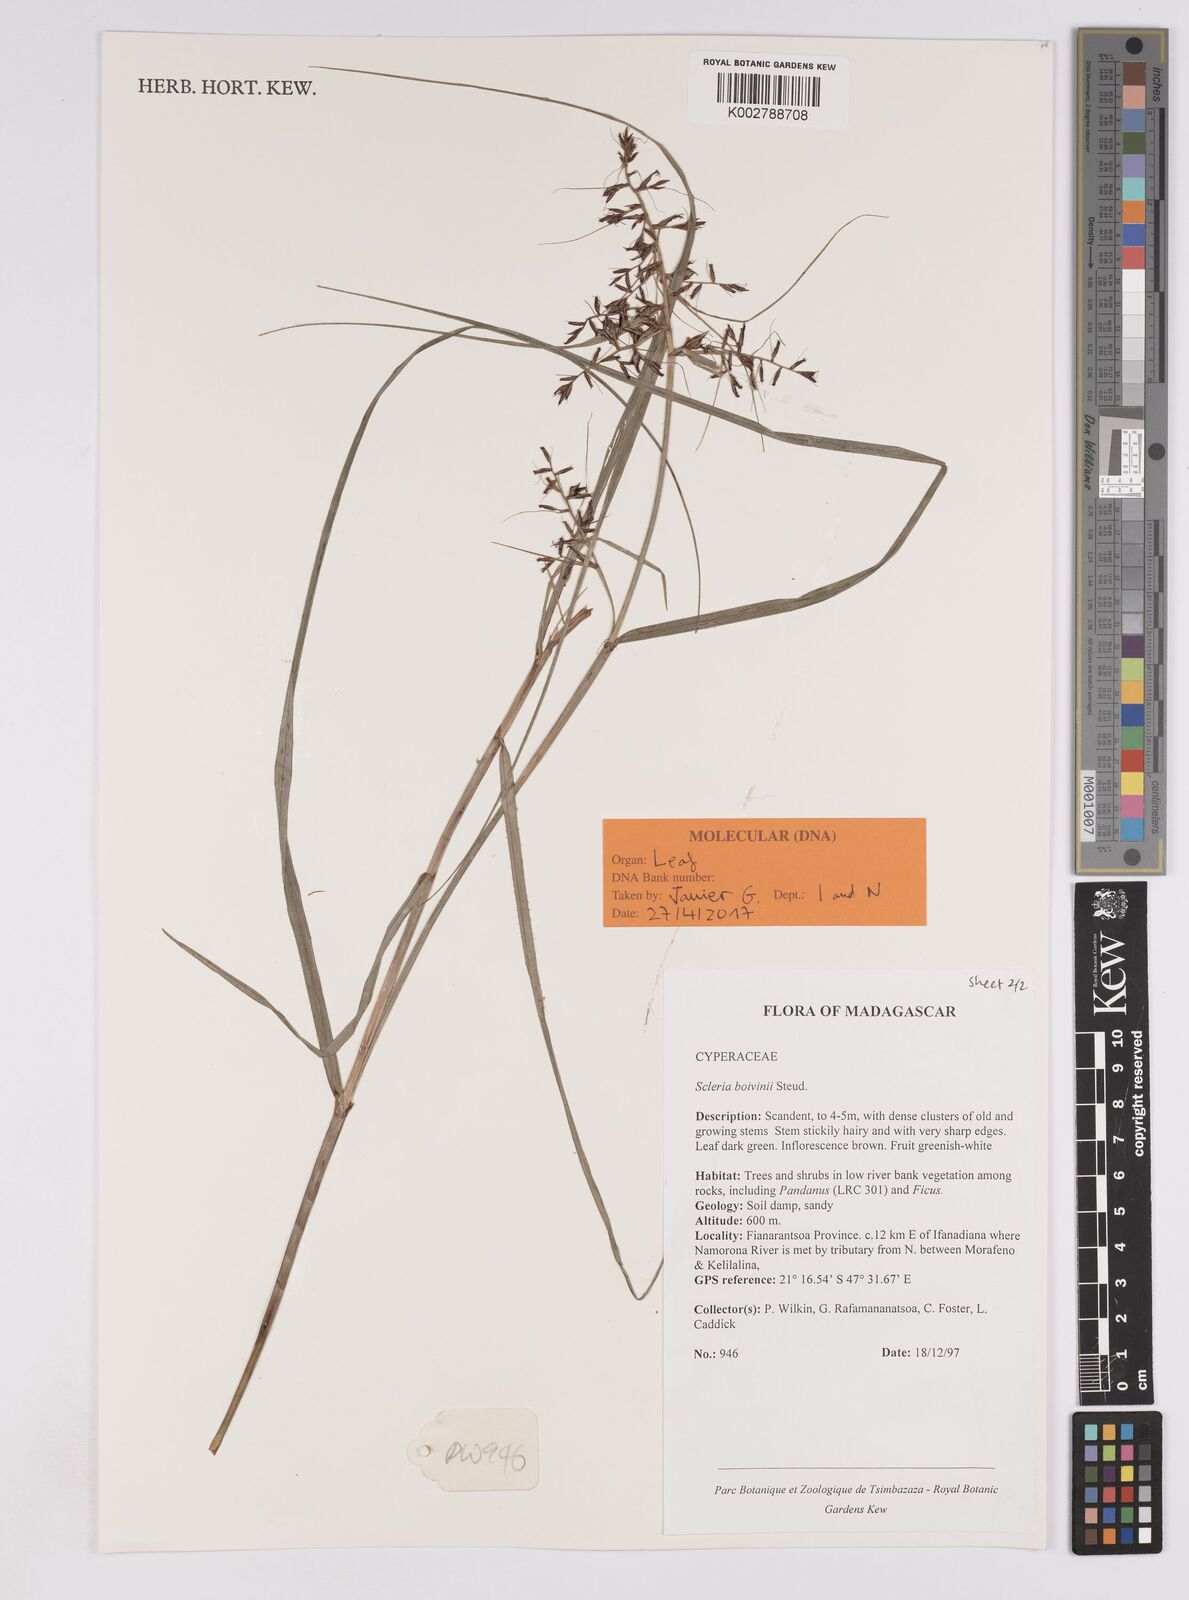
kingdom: Plantae
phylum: Tracheophyta
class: Liliopsida
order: Poales
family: Cyperaceae
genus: Scleria
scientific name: Scleria boivinii
